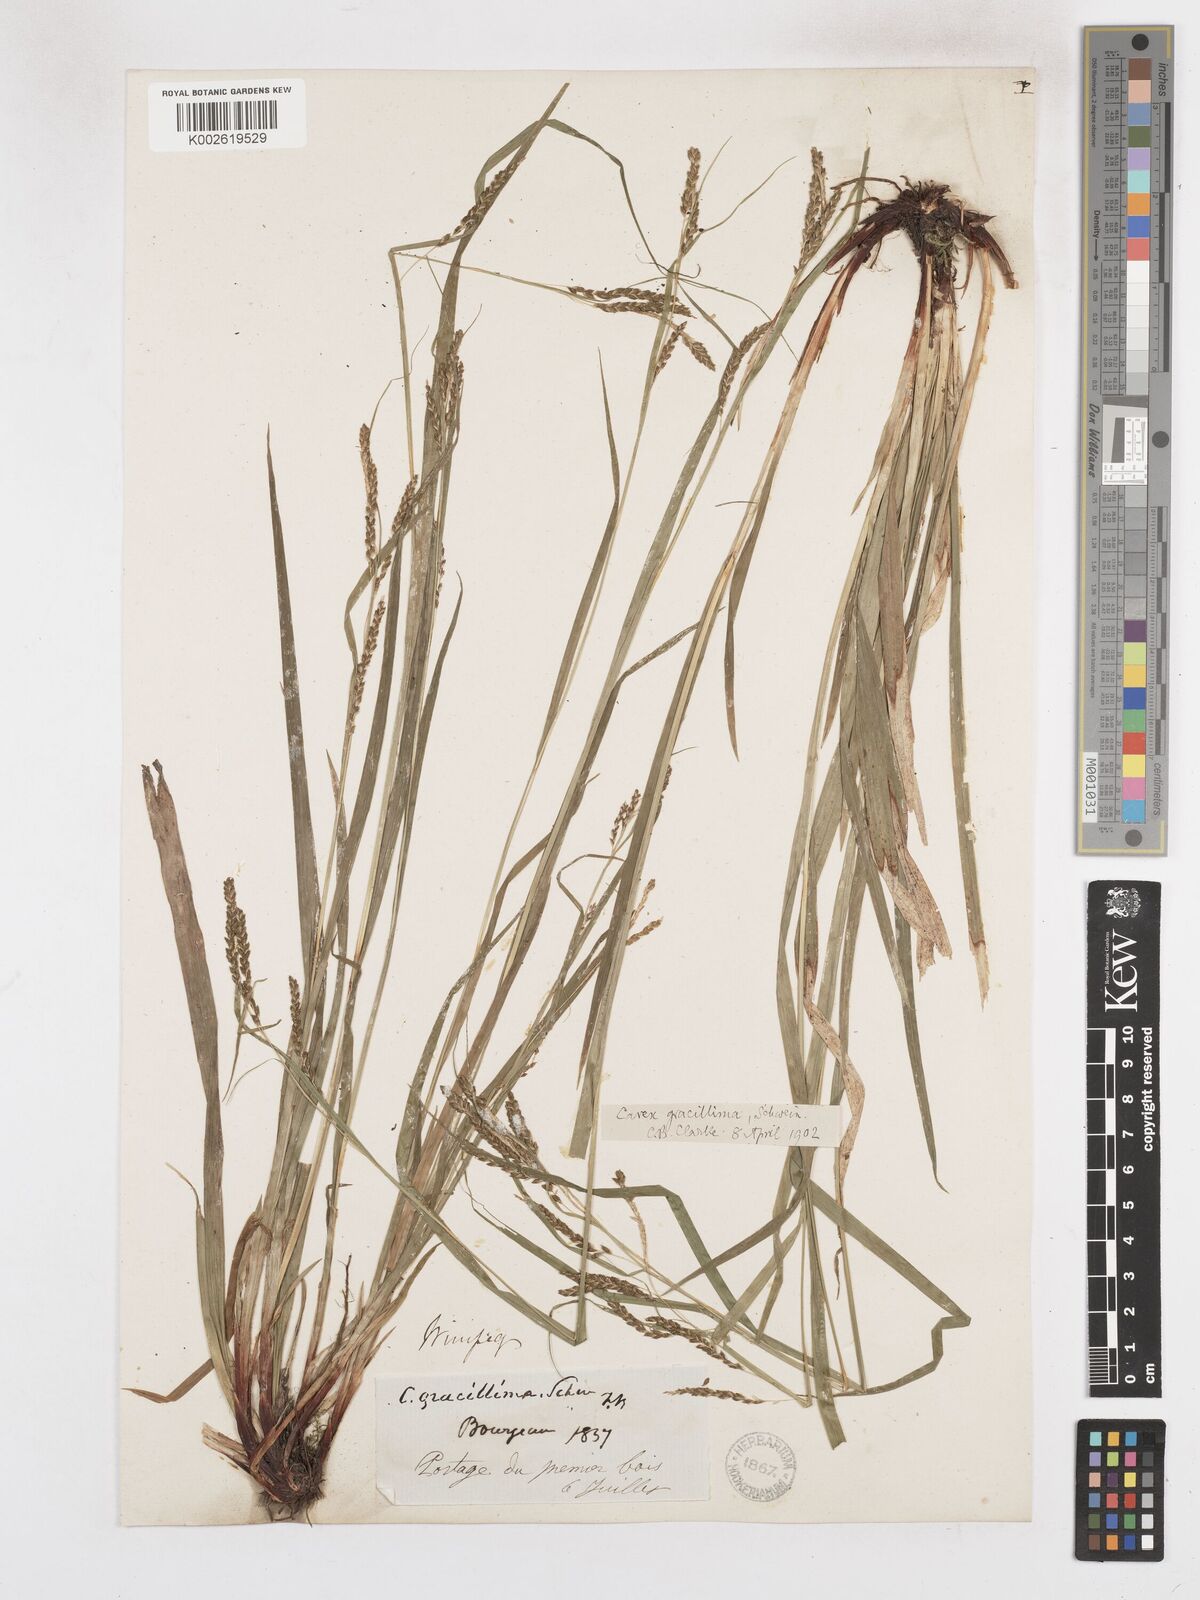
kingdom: Plantae
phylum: Tracheophyta
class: Liliopsida
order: Poales
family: Cyperaceae
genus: Carex
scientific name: Carex gracillima
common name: Graceful sedge
